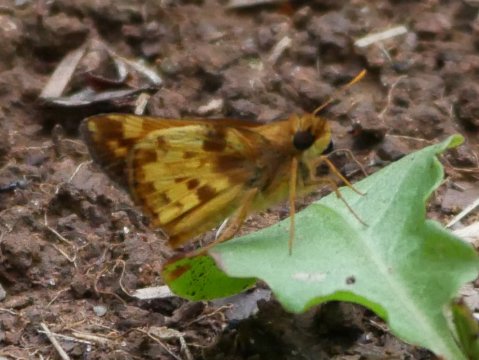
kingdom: Animalia
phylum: Arthropoda
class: Insecta
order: Lepidoptera
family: Hesperiidae
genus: Lon
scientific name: Lon zabulon
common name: Zabulon Skipper
